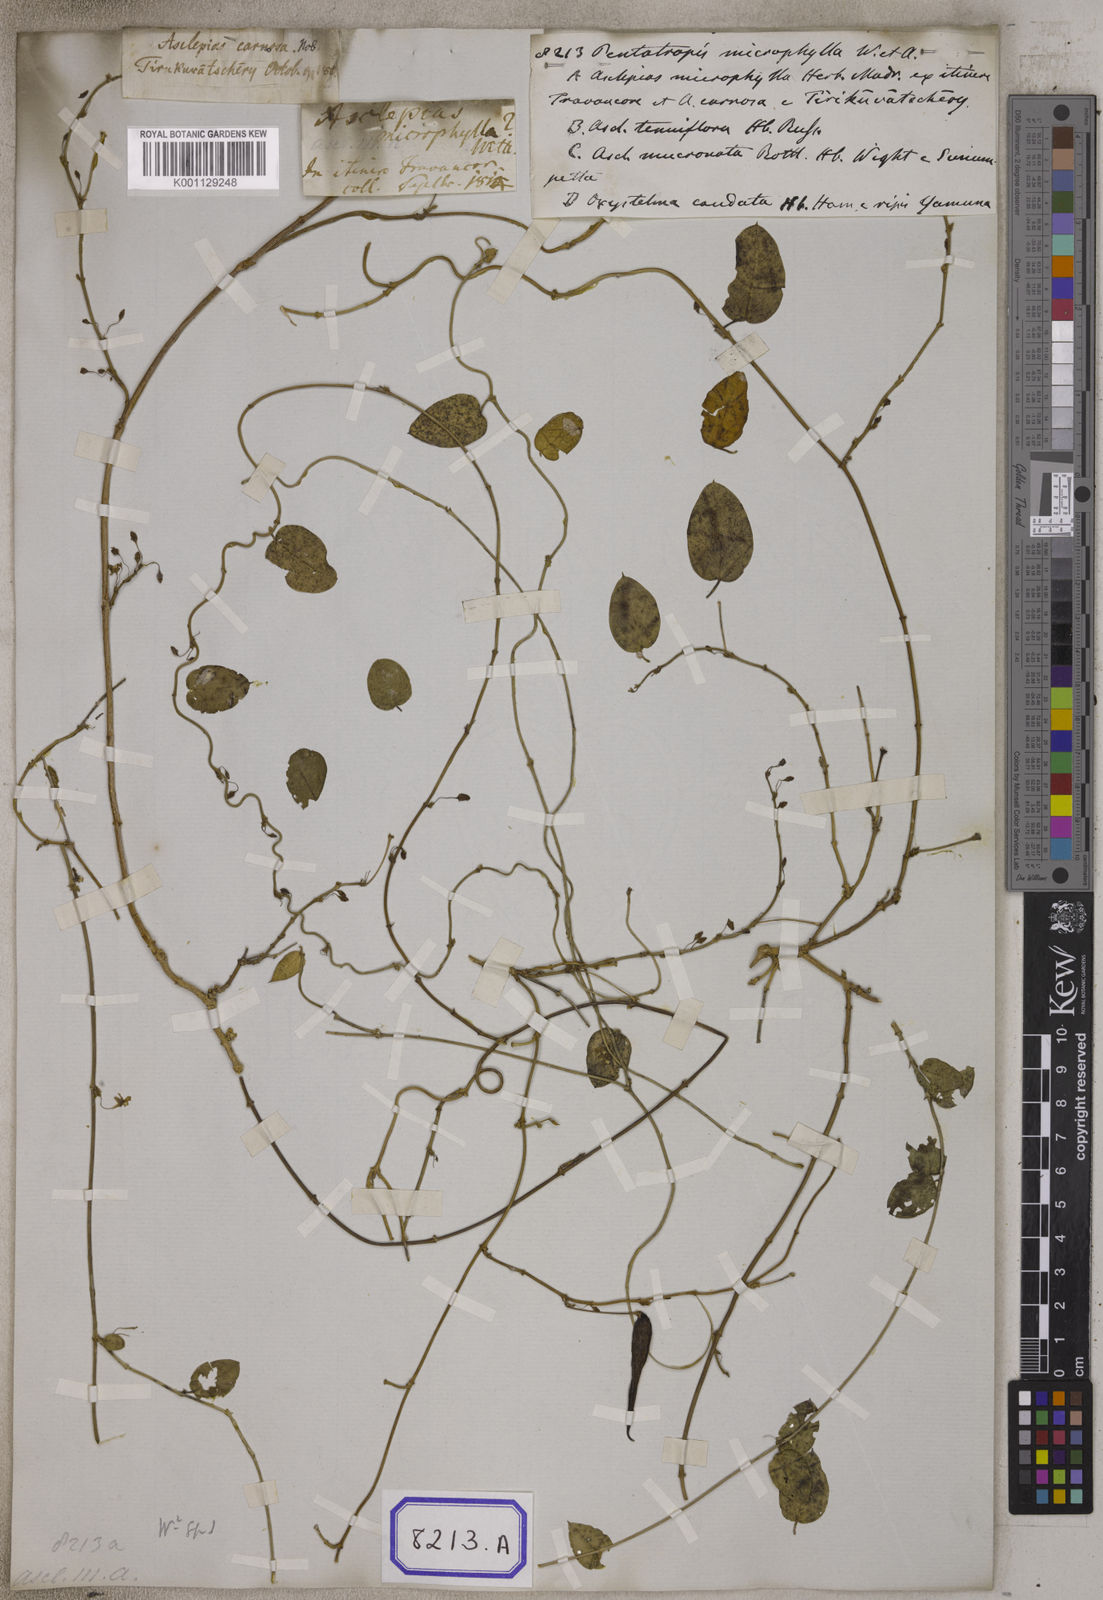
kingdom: Plantae
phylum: Tracheophyta
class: Magnoliopsida
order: Gentianales
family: Apocynaceae
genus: Pentatropis
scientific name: Pentatropis capensis
